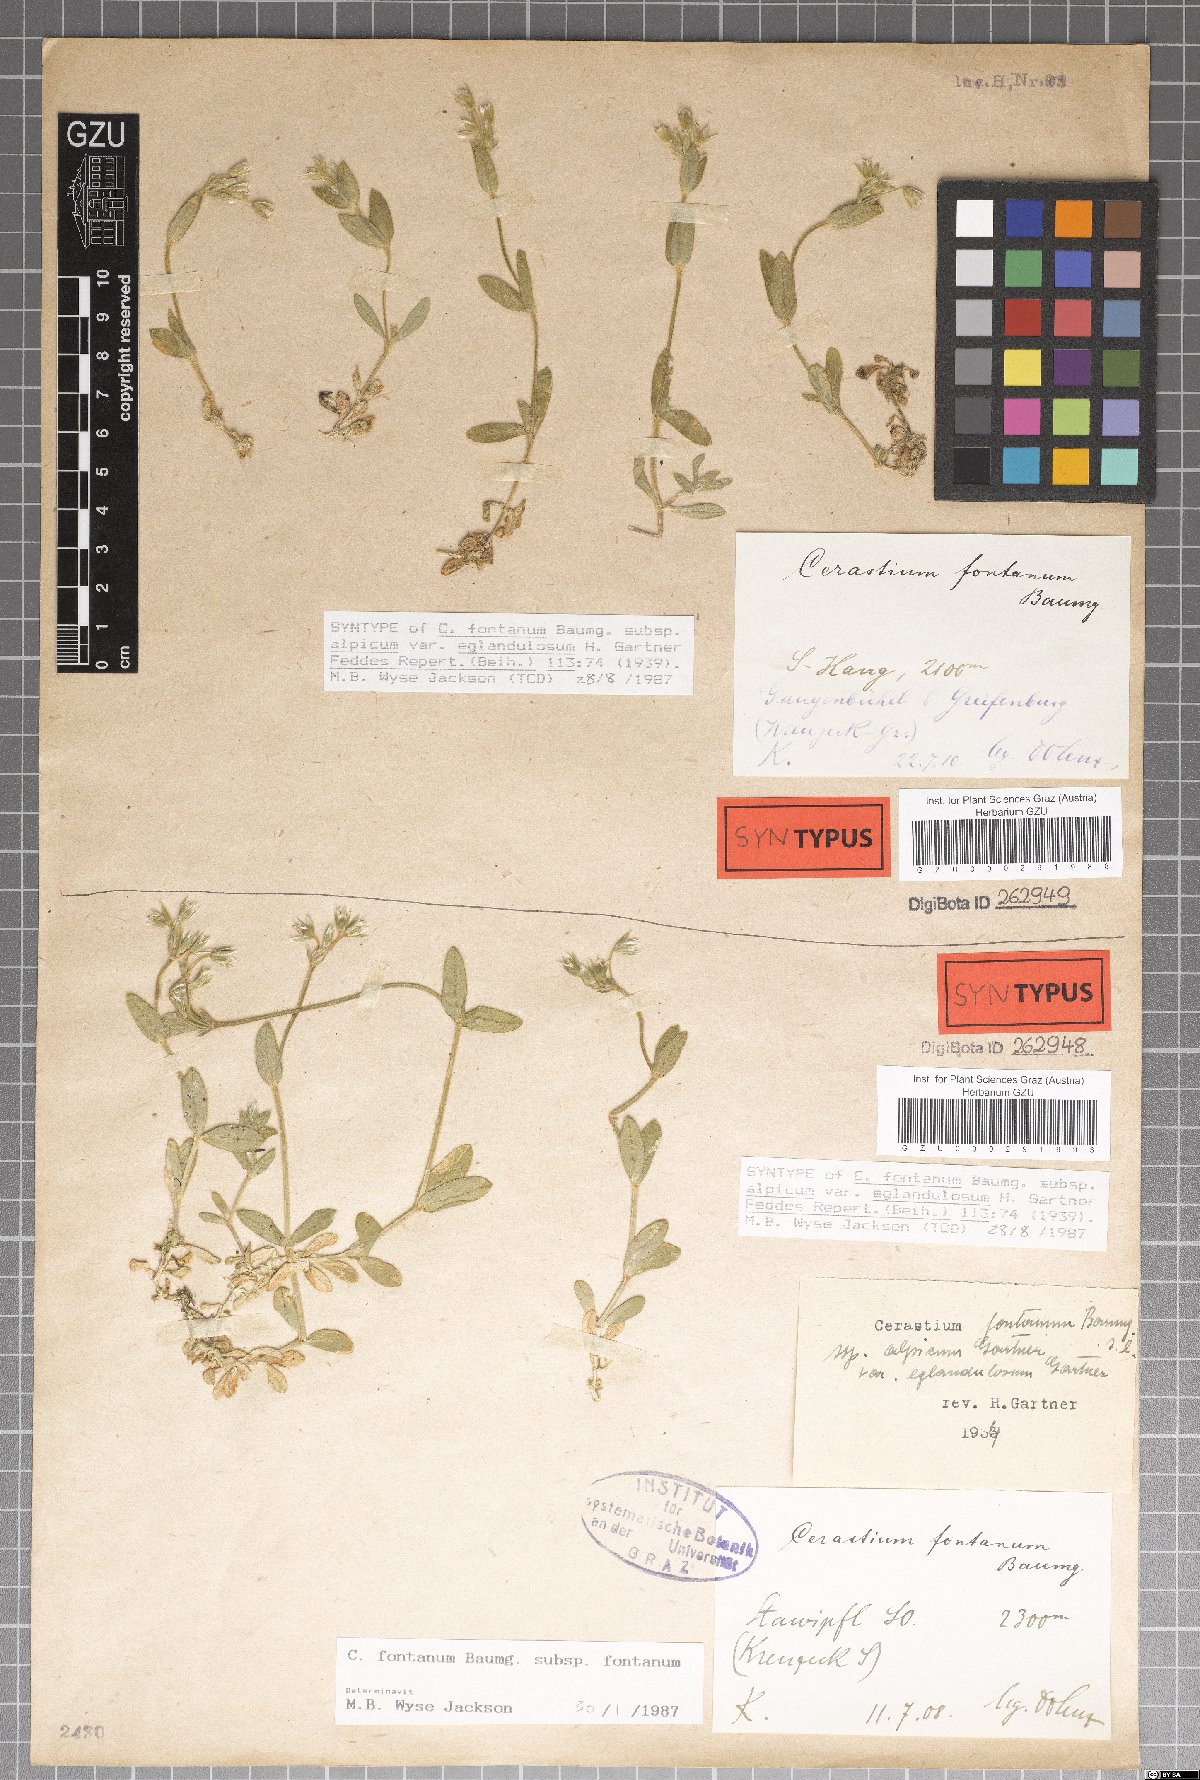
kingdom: Plantae
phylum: Tracheophyta
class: Magnoliopsida
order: Caryophyllales
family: Caryophyllaceae
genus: Cerastium
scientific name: Cerastium holosteoides
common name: Big chickweed
